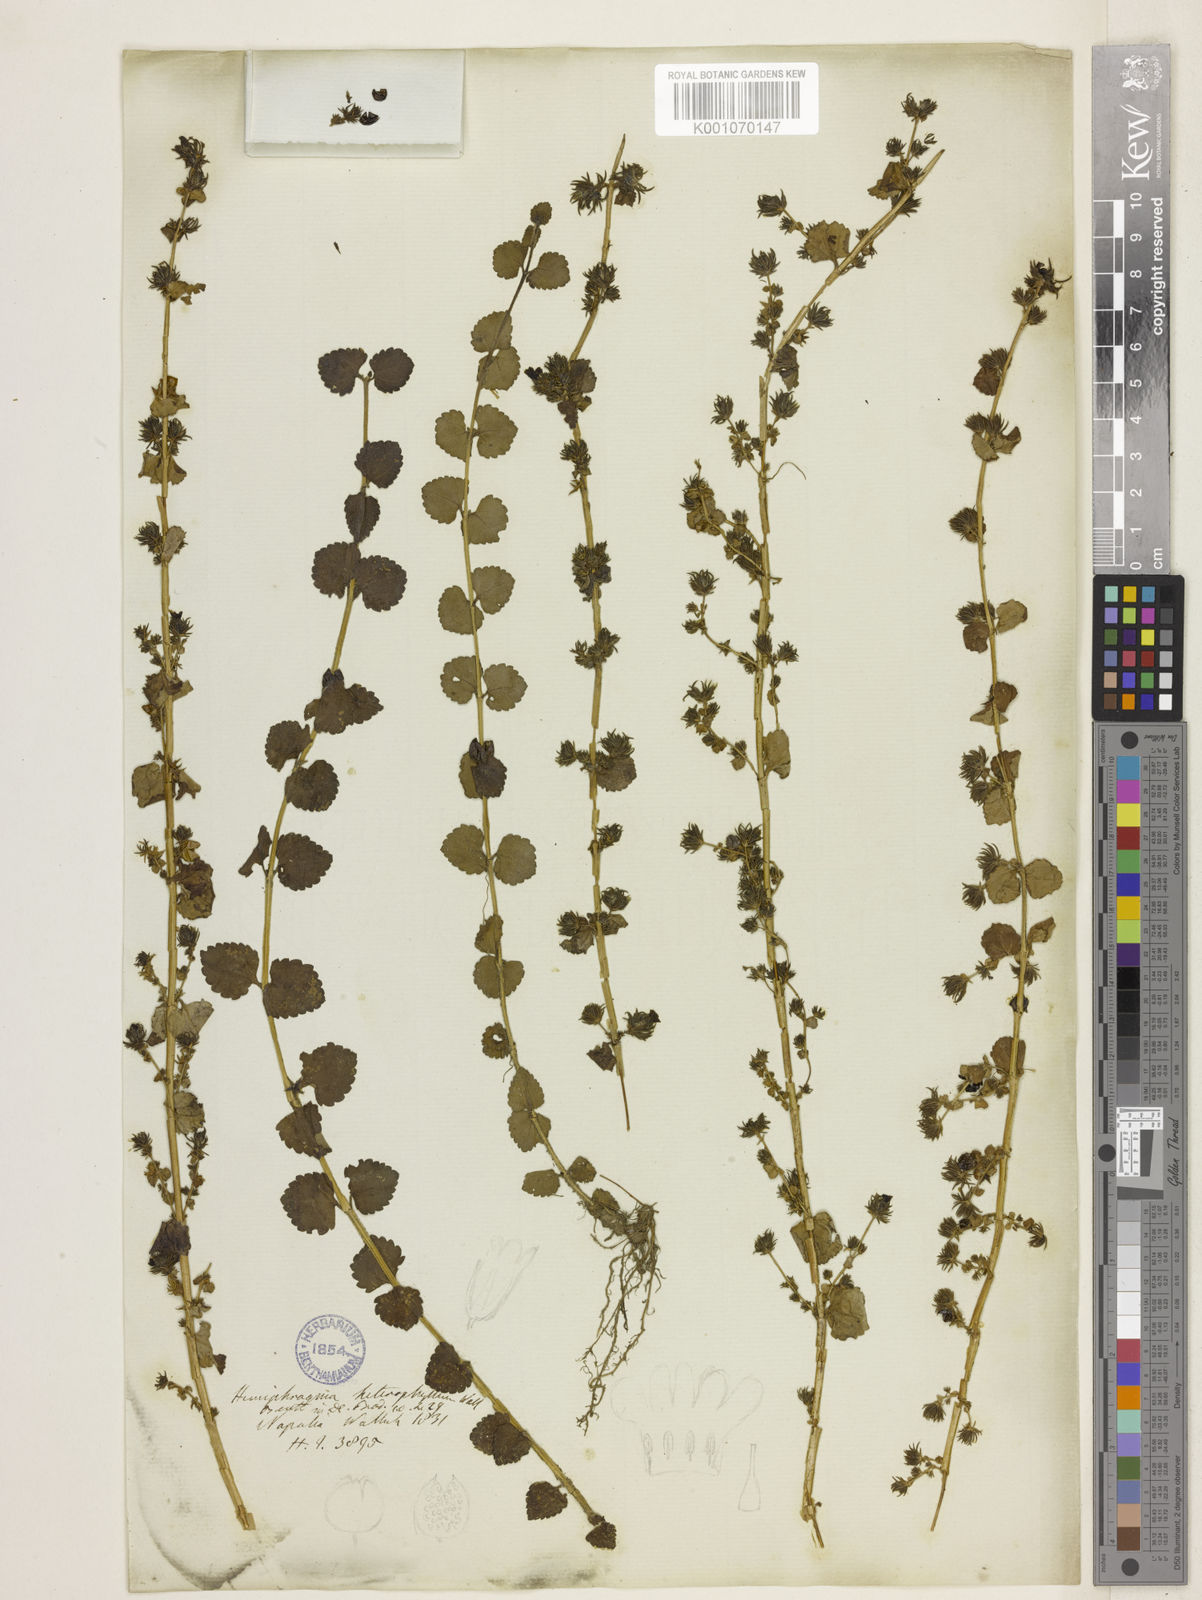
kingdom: Plantae
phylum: Tracheophyta
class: Magnoliopsida
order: Lamiales
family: Plantaginaceae
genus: Hemiphragma
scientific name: Hemiphragma heterophyllum
